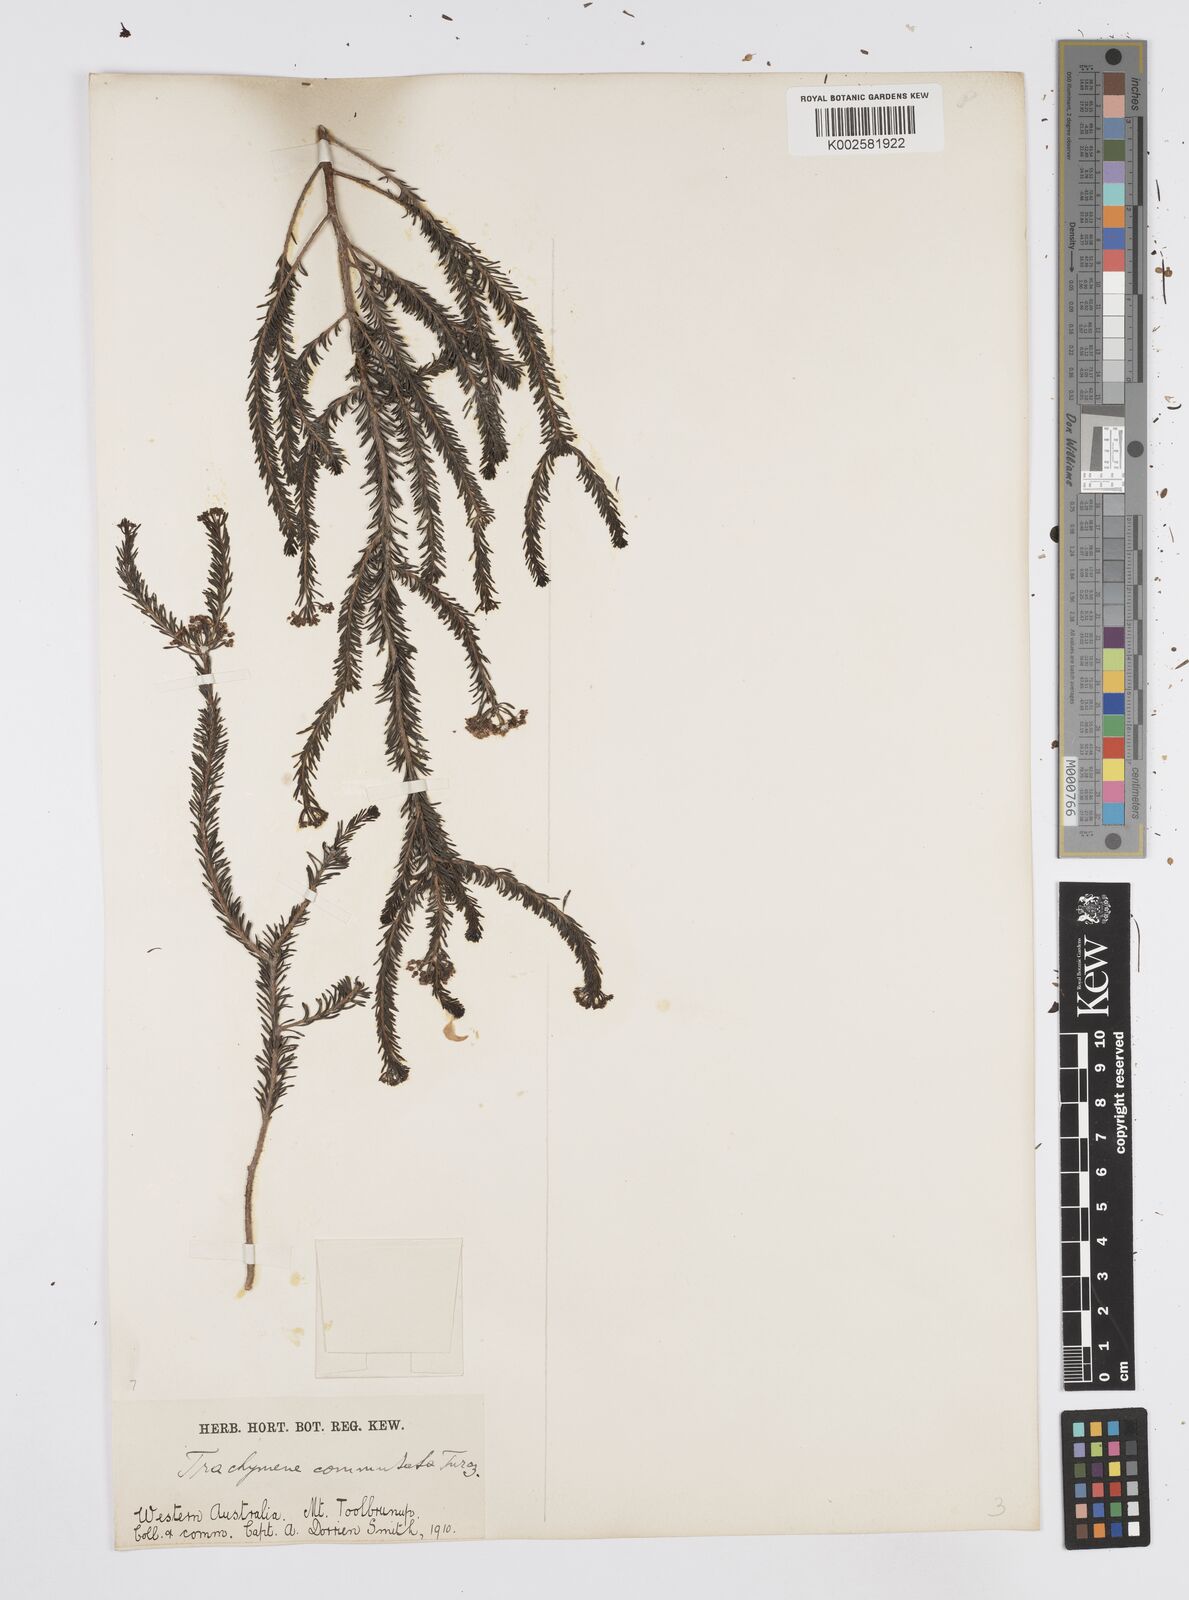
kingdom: Plantae
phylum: Tracheophyta
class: Magnoliopsida
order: Apiales
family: Apiaceae
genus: Platysace
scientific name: Platysace commutata
